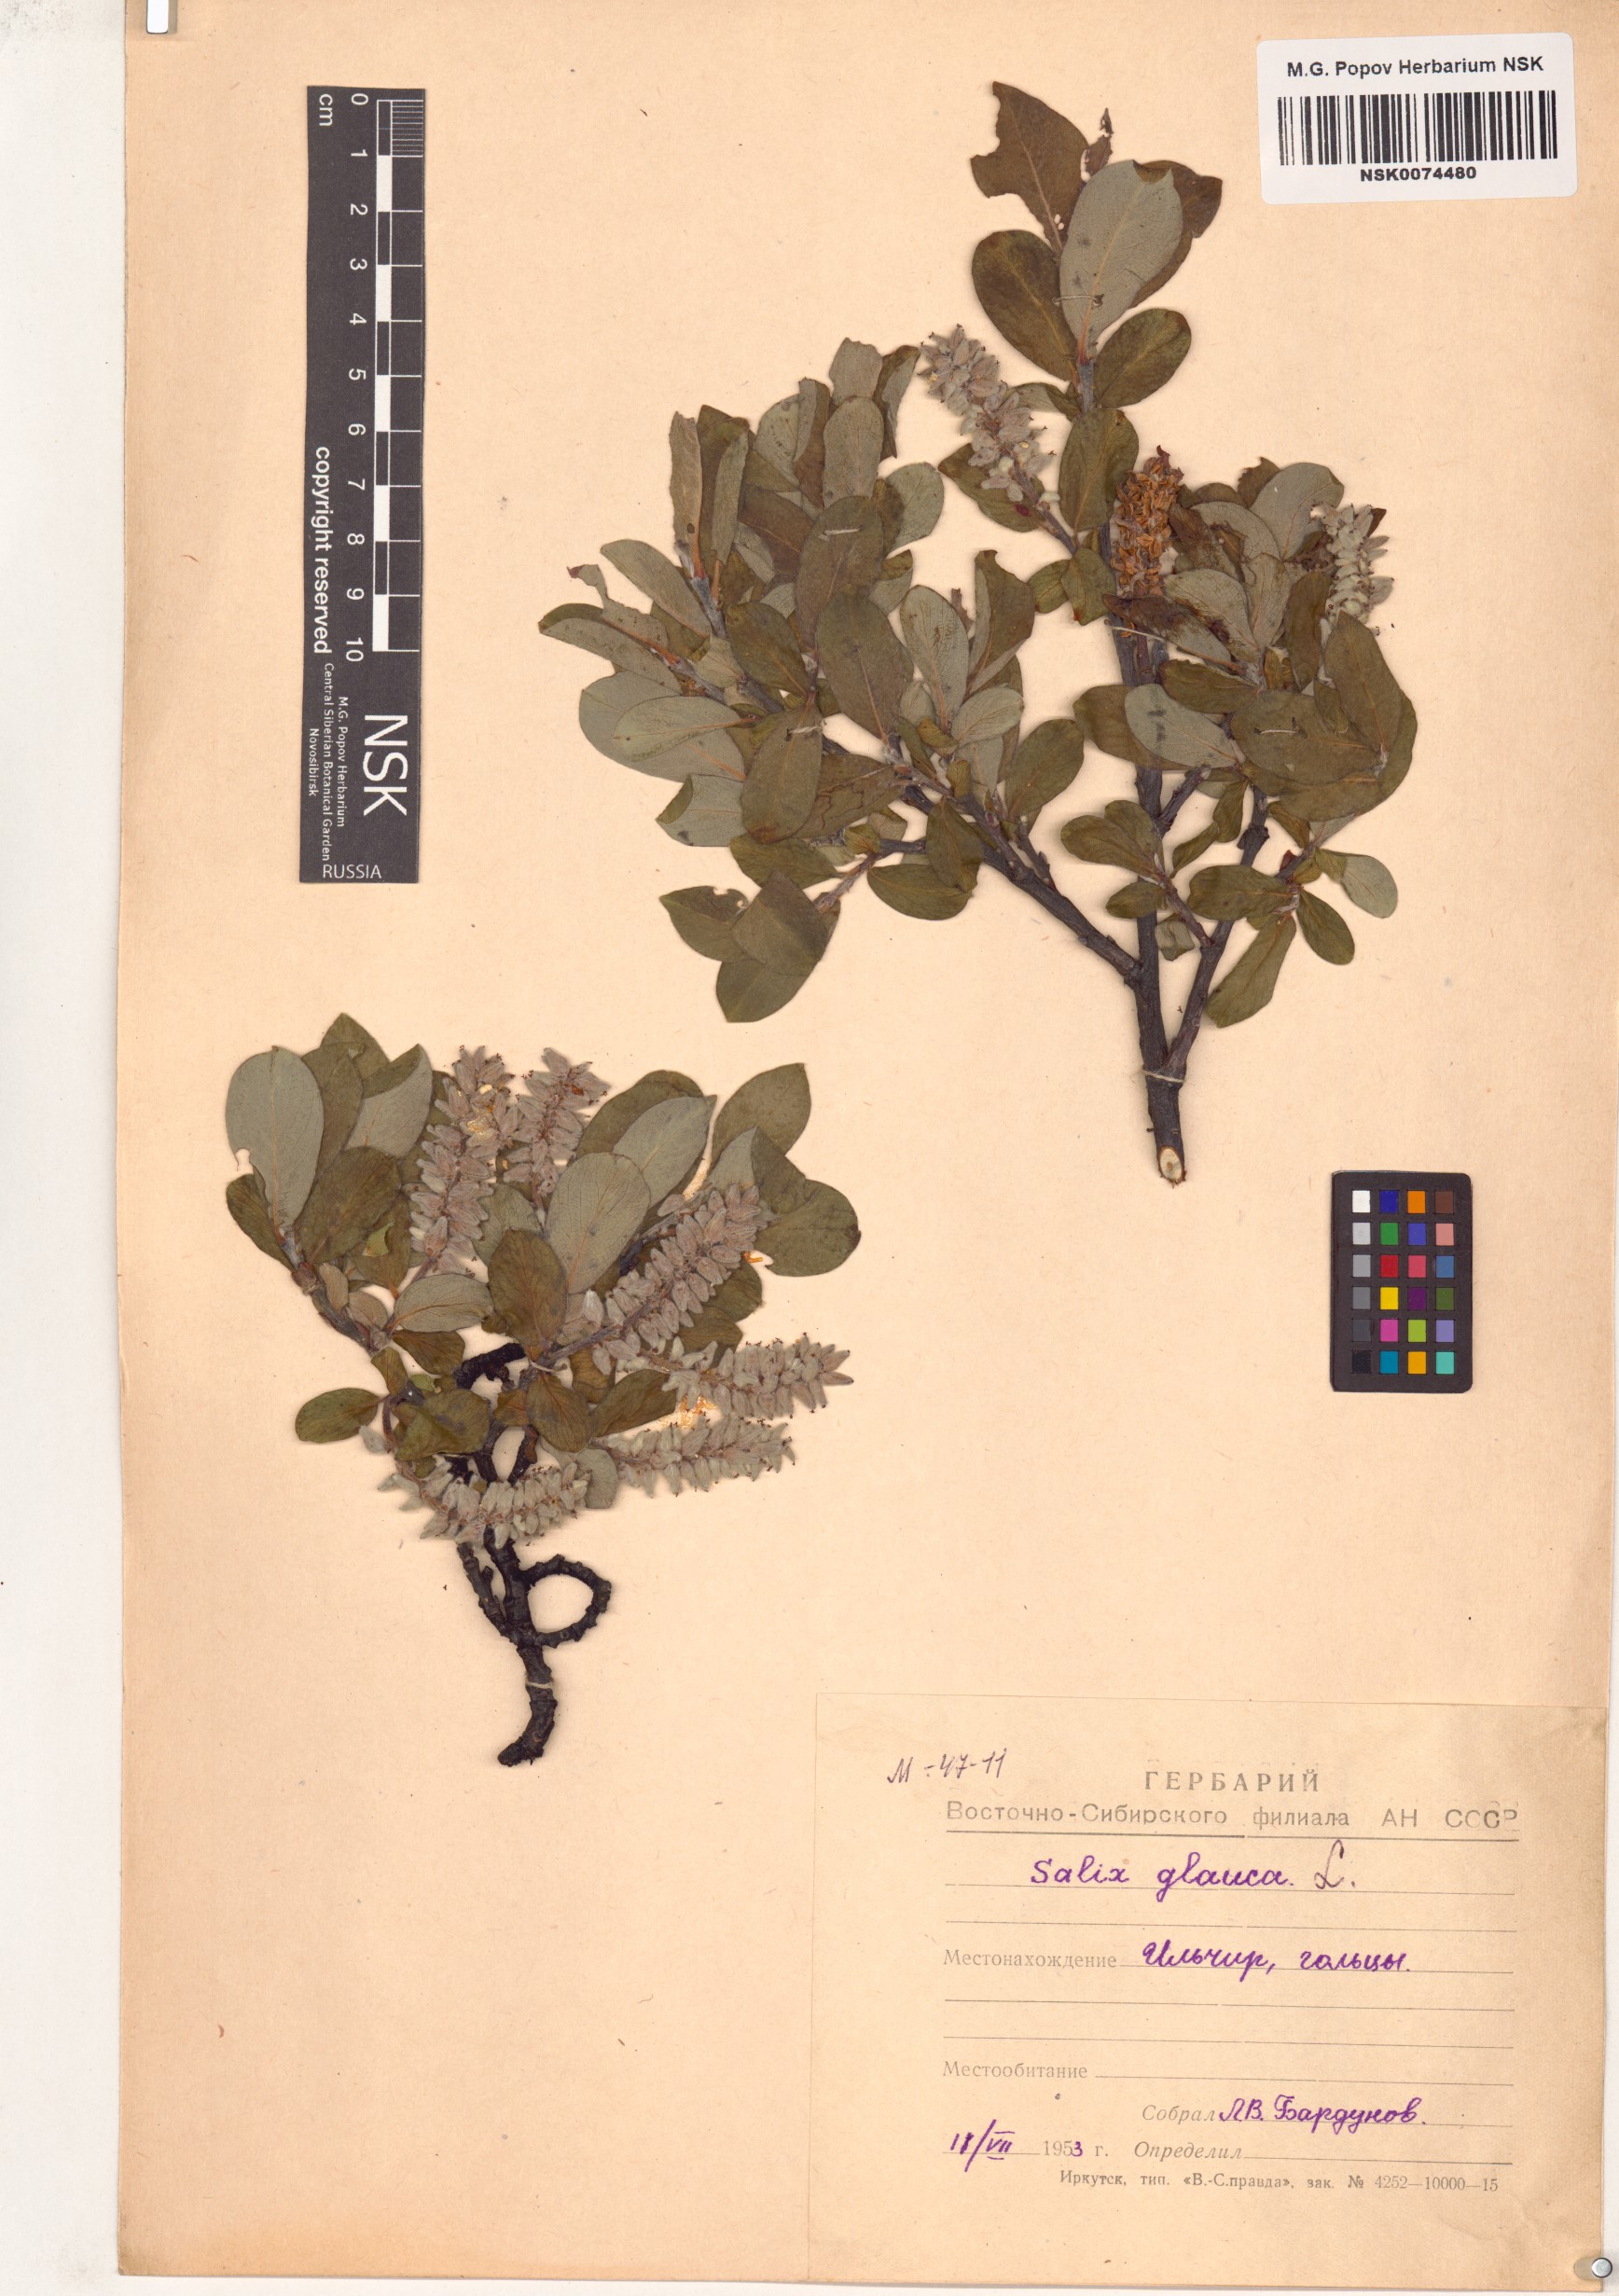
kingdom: Plantae
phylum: Tracheophyta
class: Magnoliopsida
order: Malpighiales
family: Salicaceae
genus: Salix
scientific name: Salix glauca
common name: Glaucous willow
